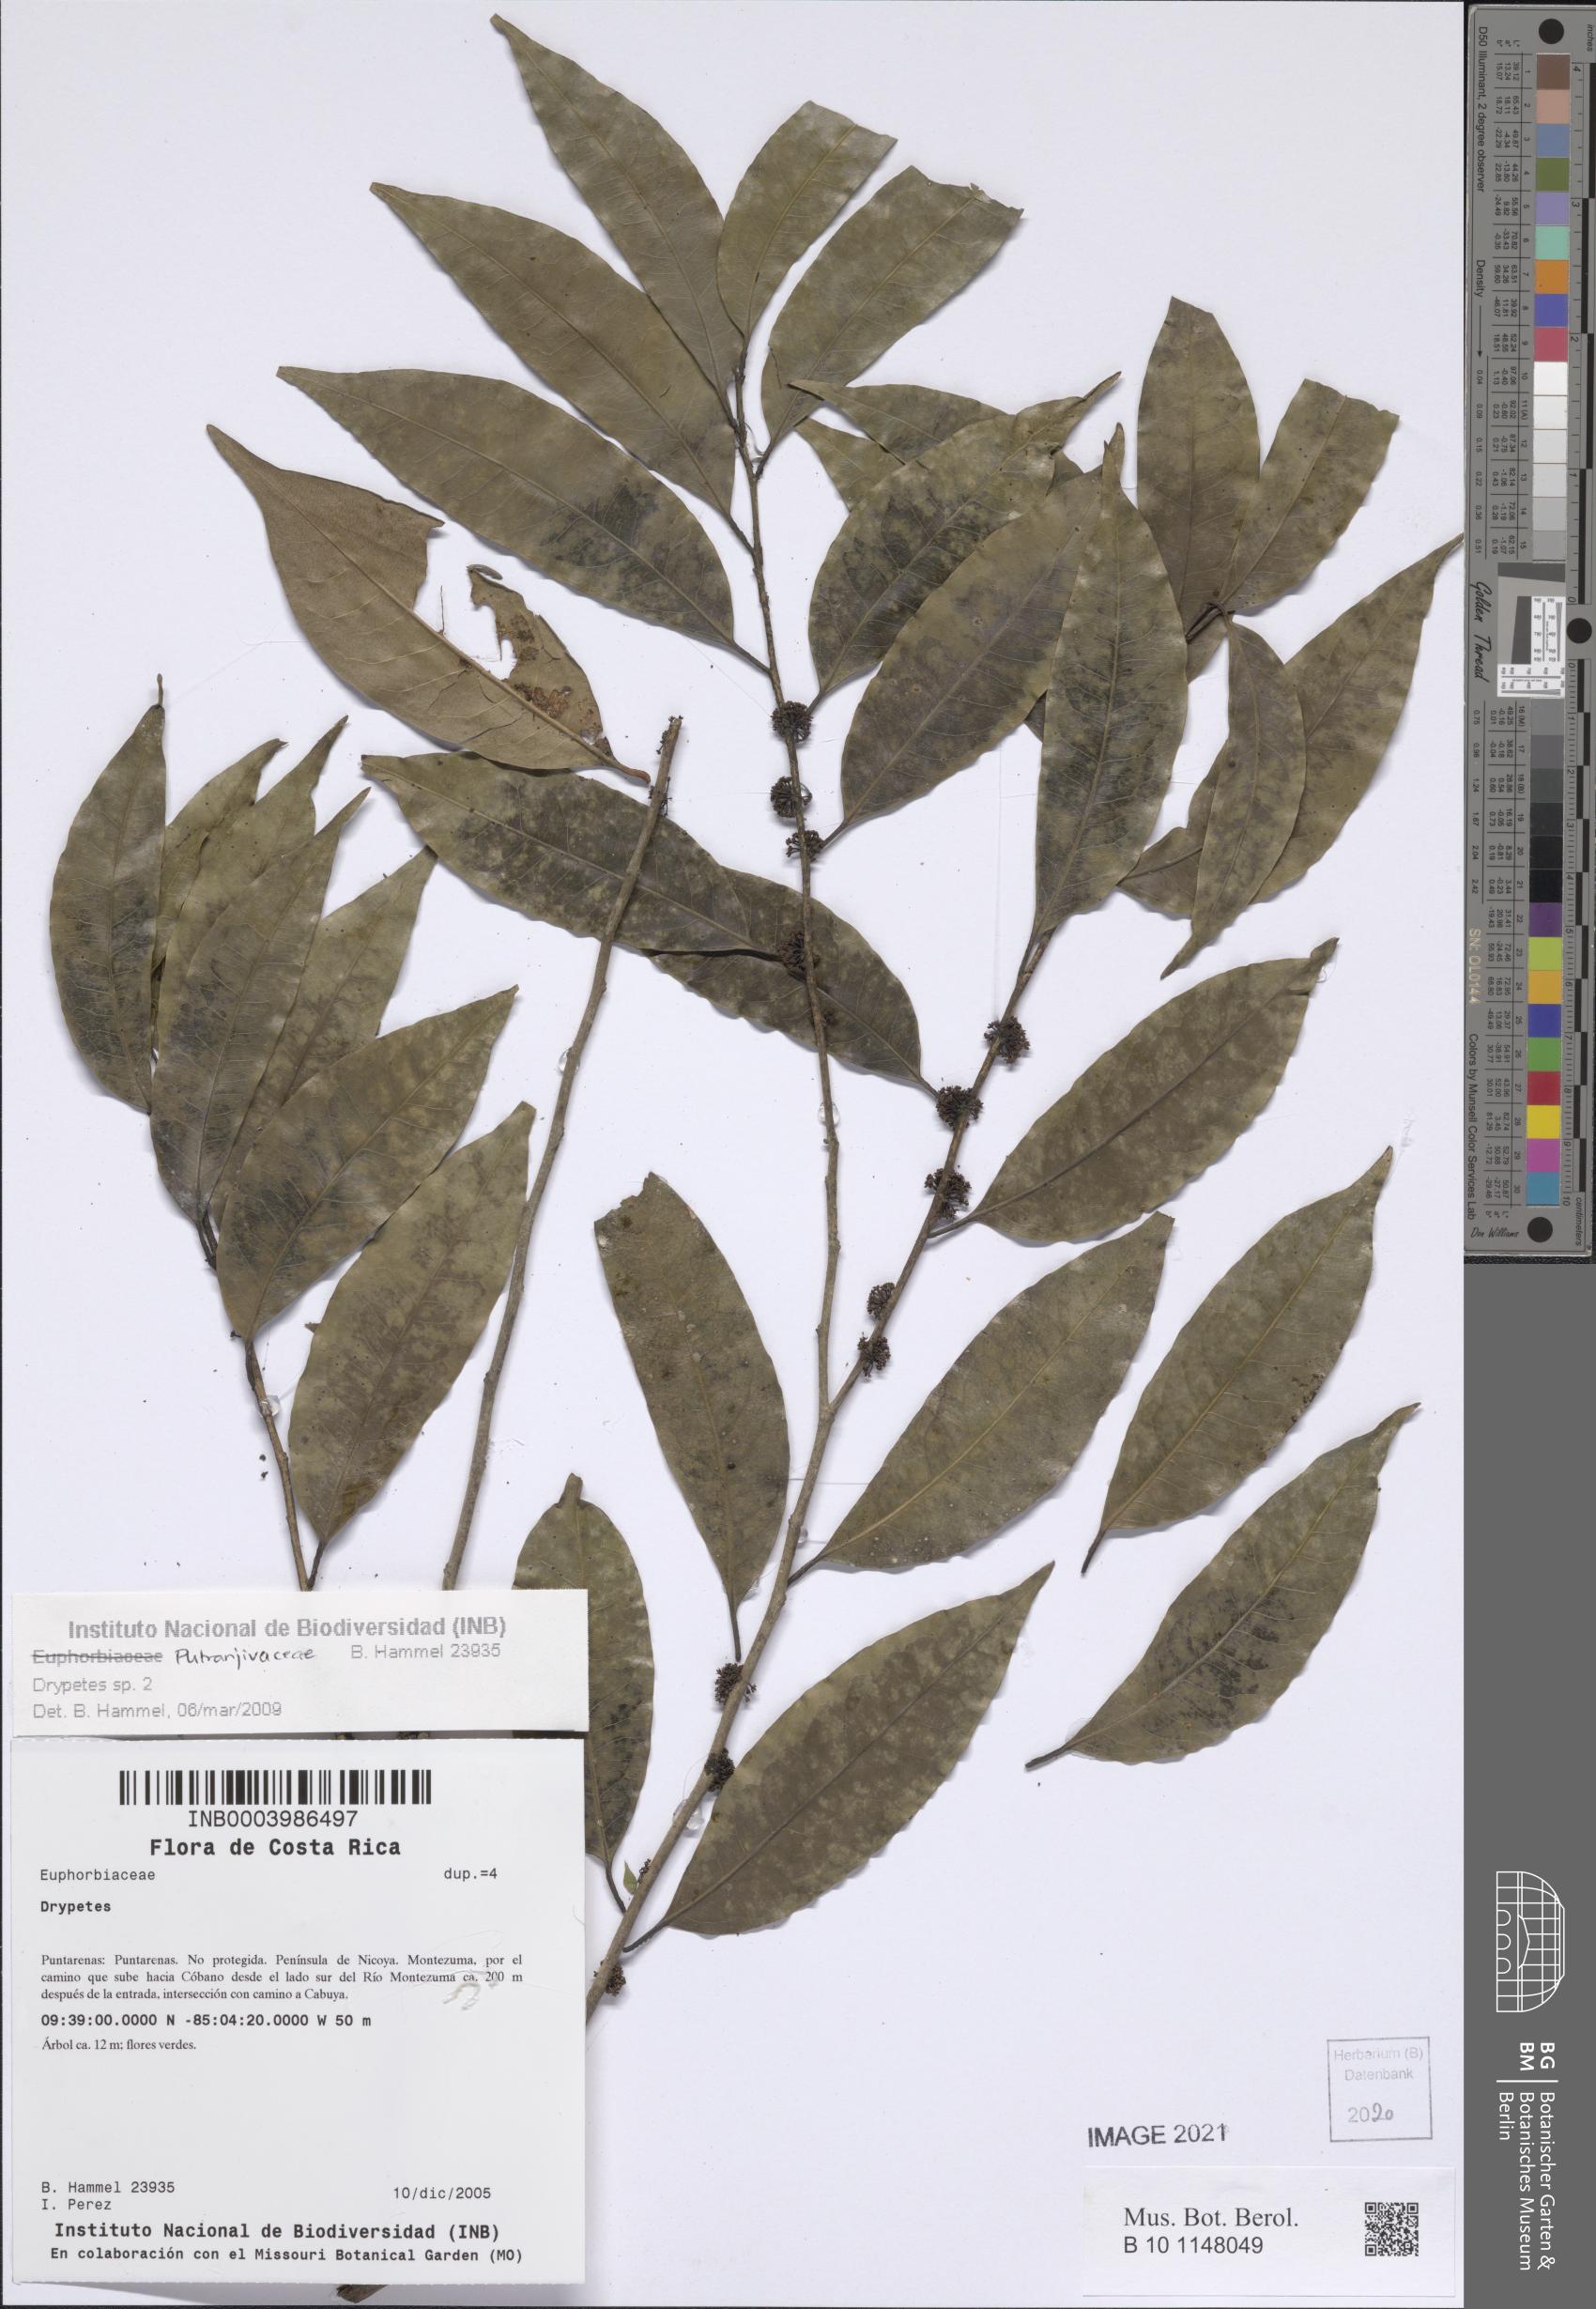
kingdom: Plantae
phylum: Tracheophyta
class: Magnoliopsida
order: Malpighiales
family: Putranjivaceae
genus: Drypetes
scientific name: Drypetes
